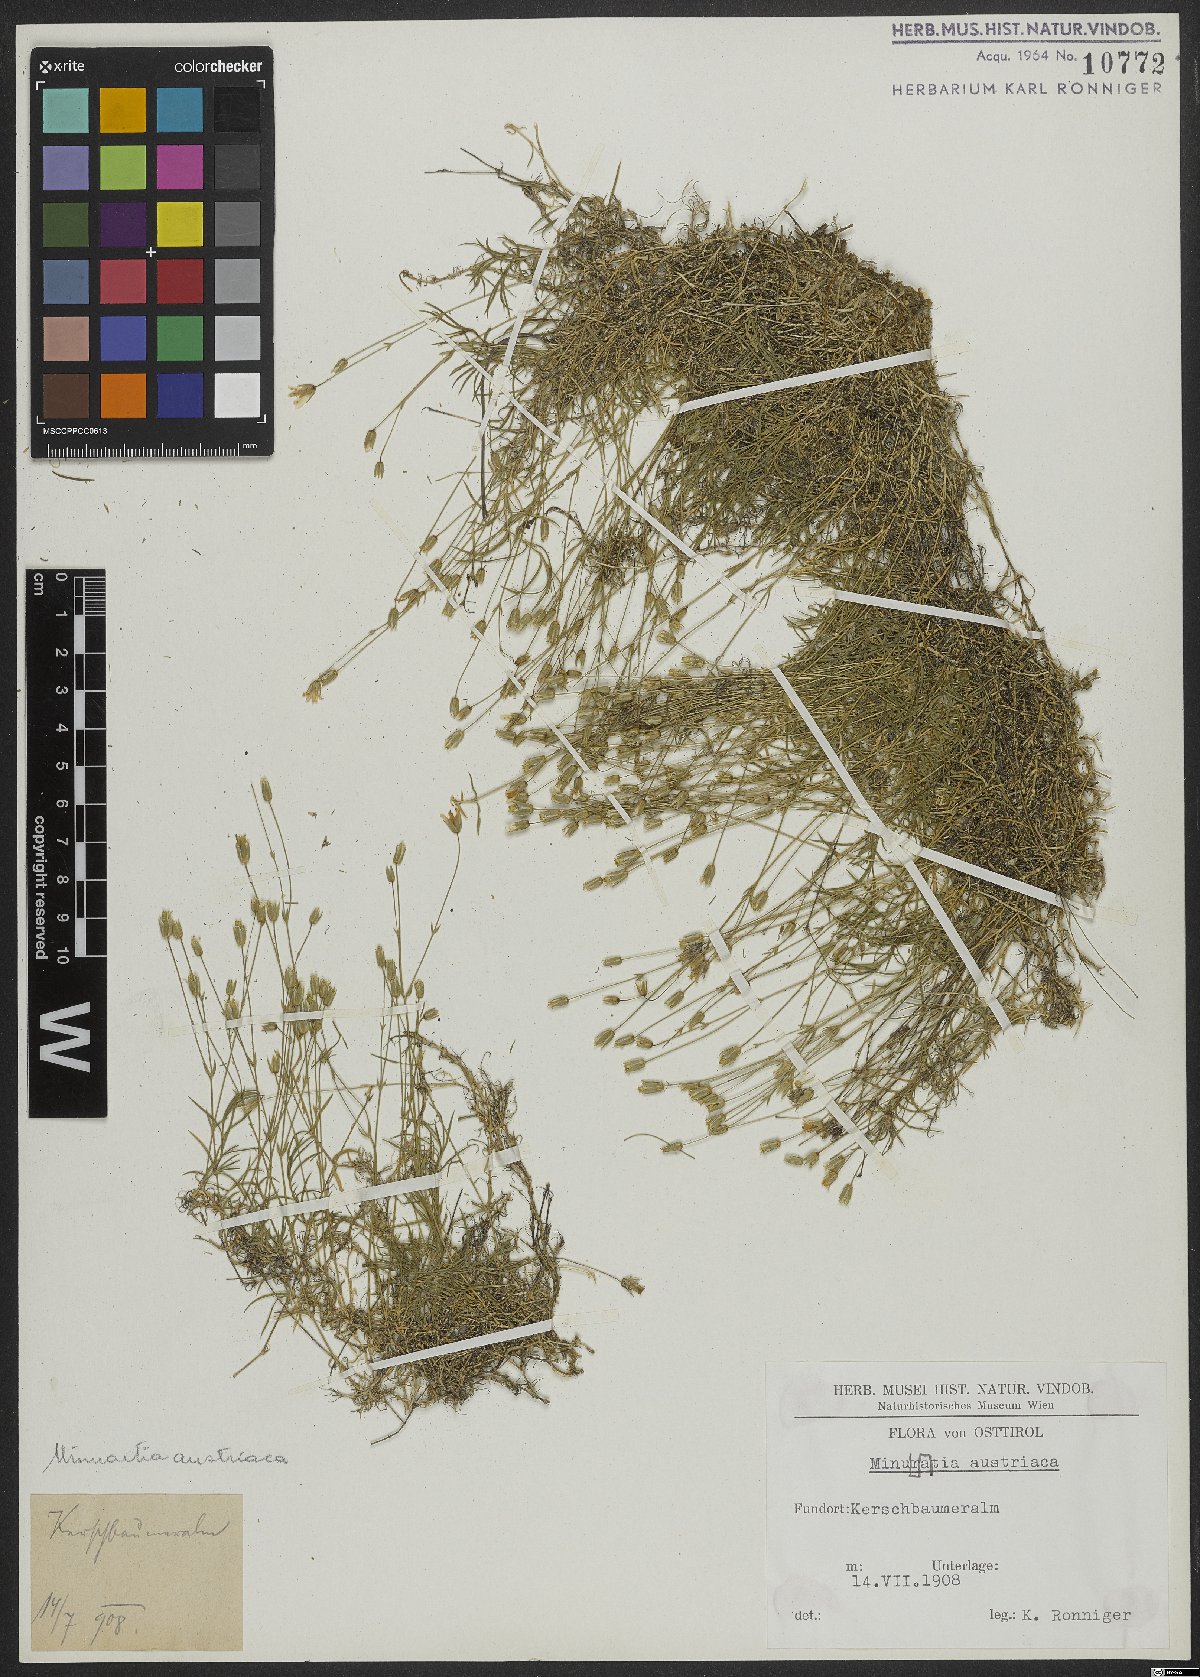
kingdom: Plantae
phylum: Tracheophyta
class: Magnoliopsida
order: Caryophyllales
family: Caryophyllaceae
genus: Sabulina
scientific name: Sabulina austriaca
